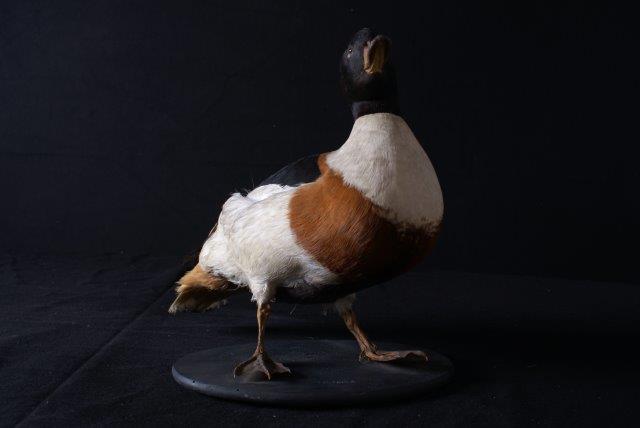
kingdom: Animalia
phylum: Chordata
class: Aves
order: Anseriformes
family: Anatidae
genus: Tadorna
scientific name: Tadorna tadorna
